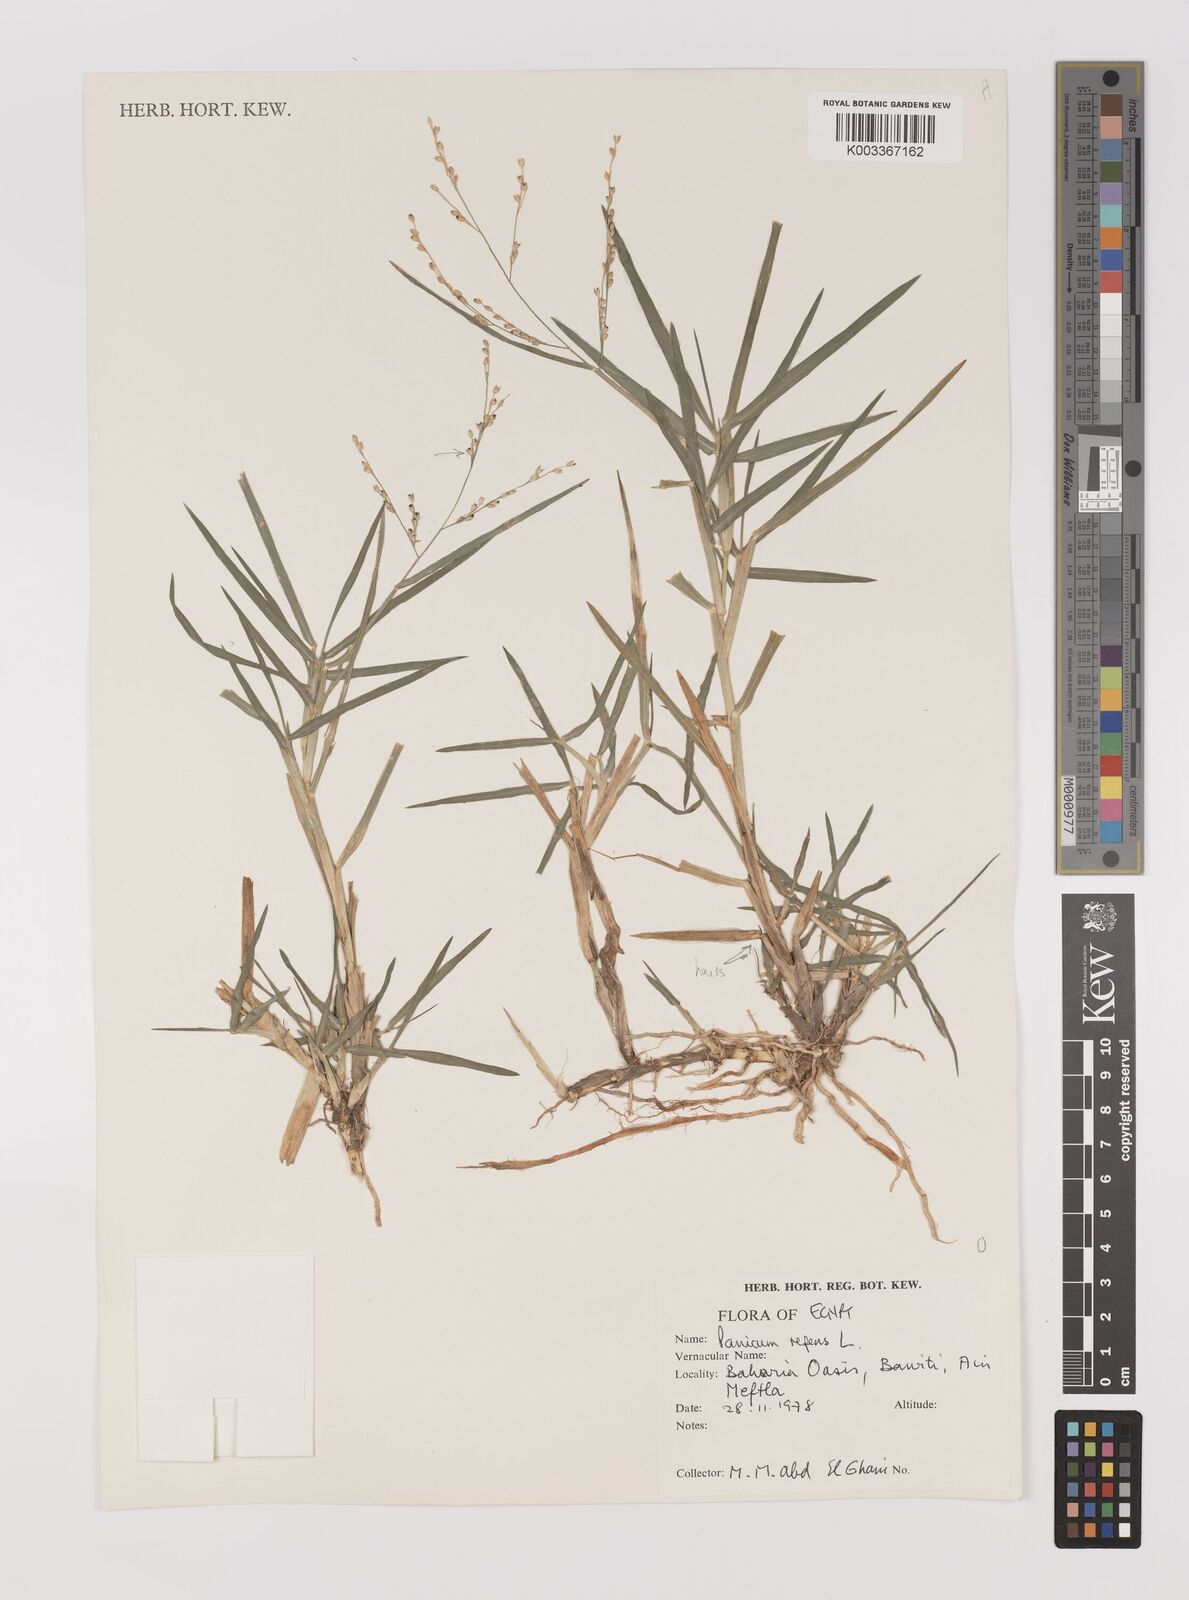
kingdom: Plantae
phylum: Tracheophyta
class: Liliopsida
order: Poales
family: Poaceae
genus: Panicum
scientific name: Panicum repens
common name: Torpedo grass
